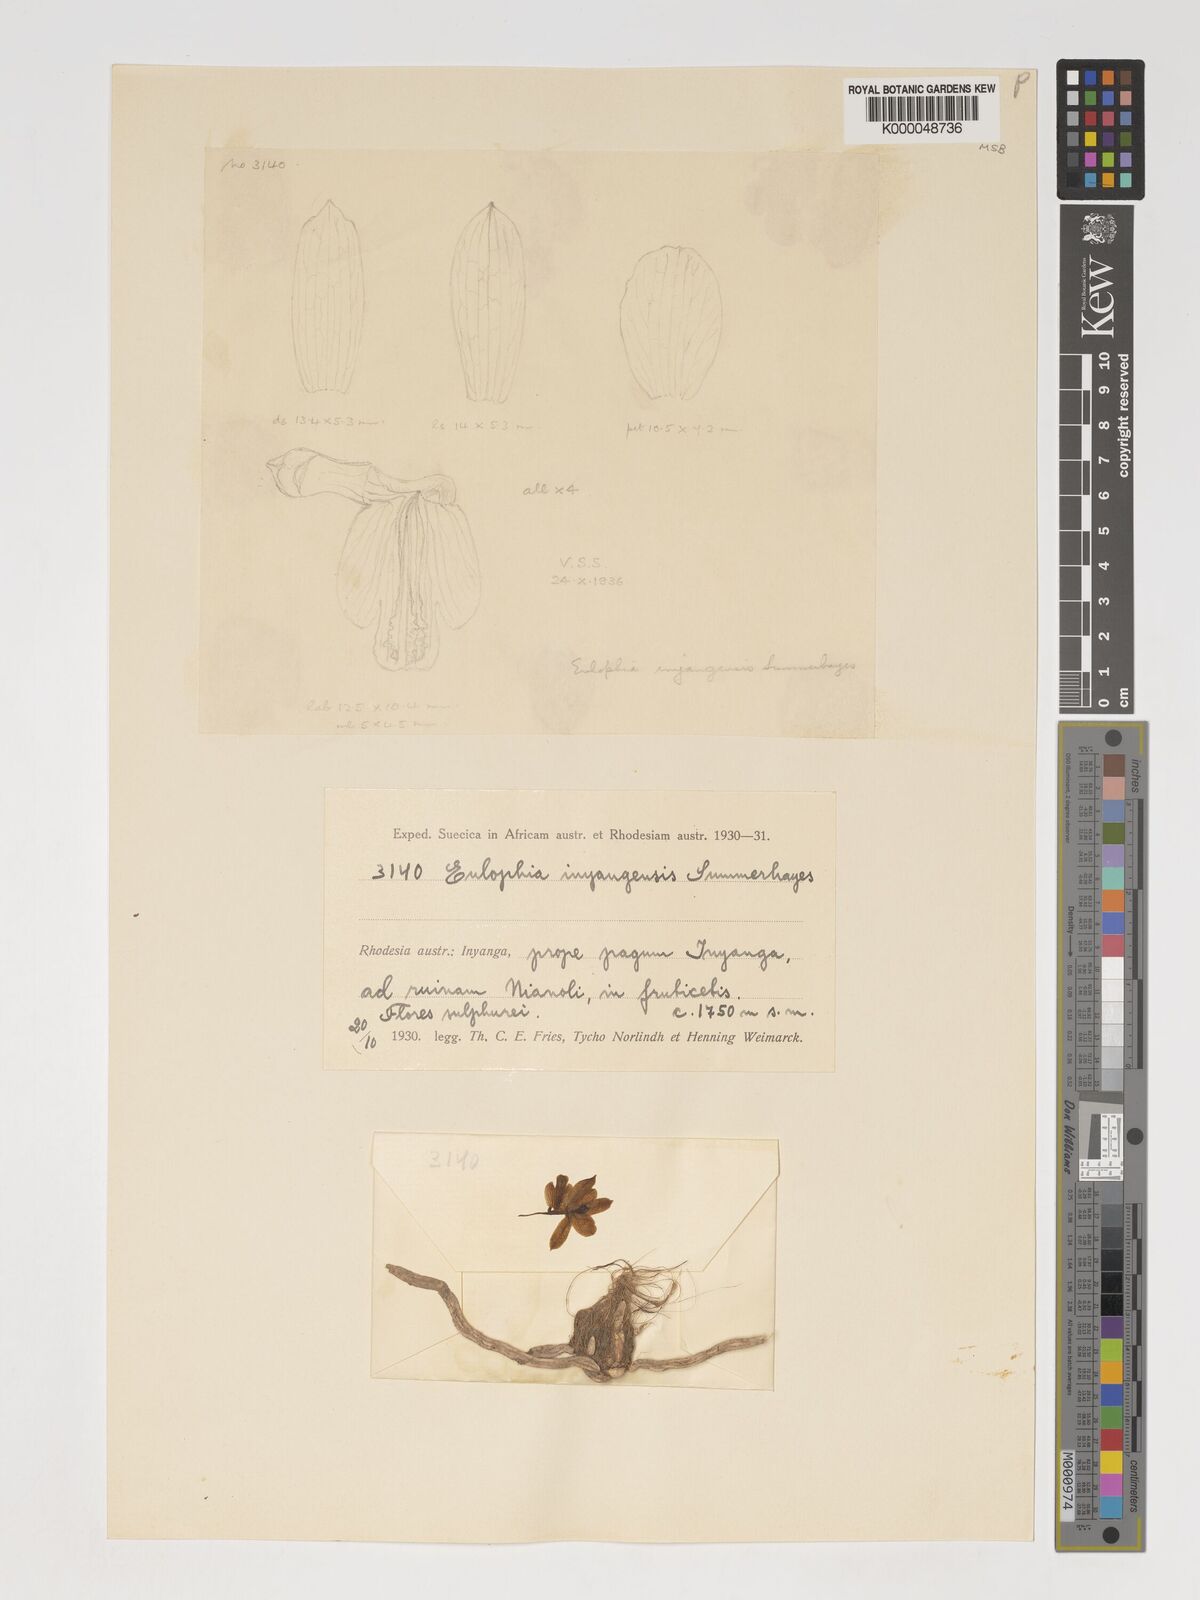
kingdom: Plantae
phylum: Tracheophyta
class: Liliopsida
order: Asparagales
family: Orchidaceae
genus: Eulophia
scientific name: Eulophia monticola
